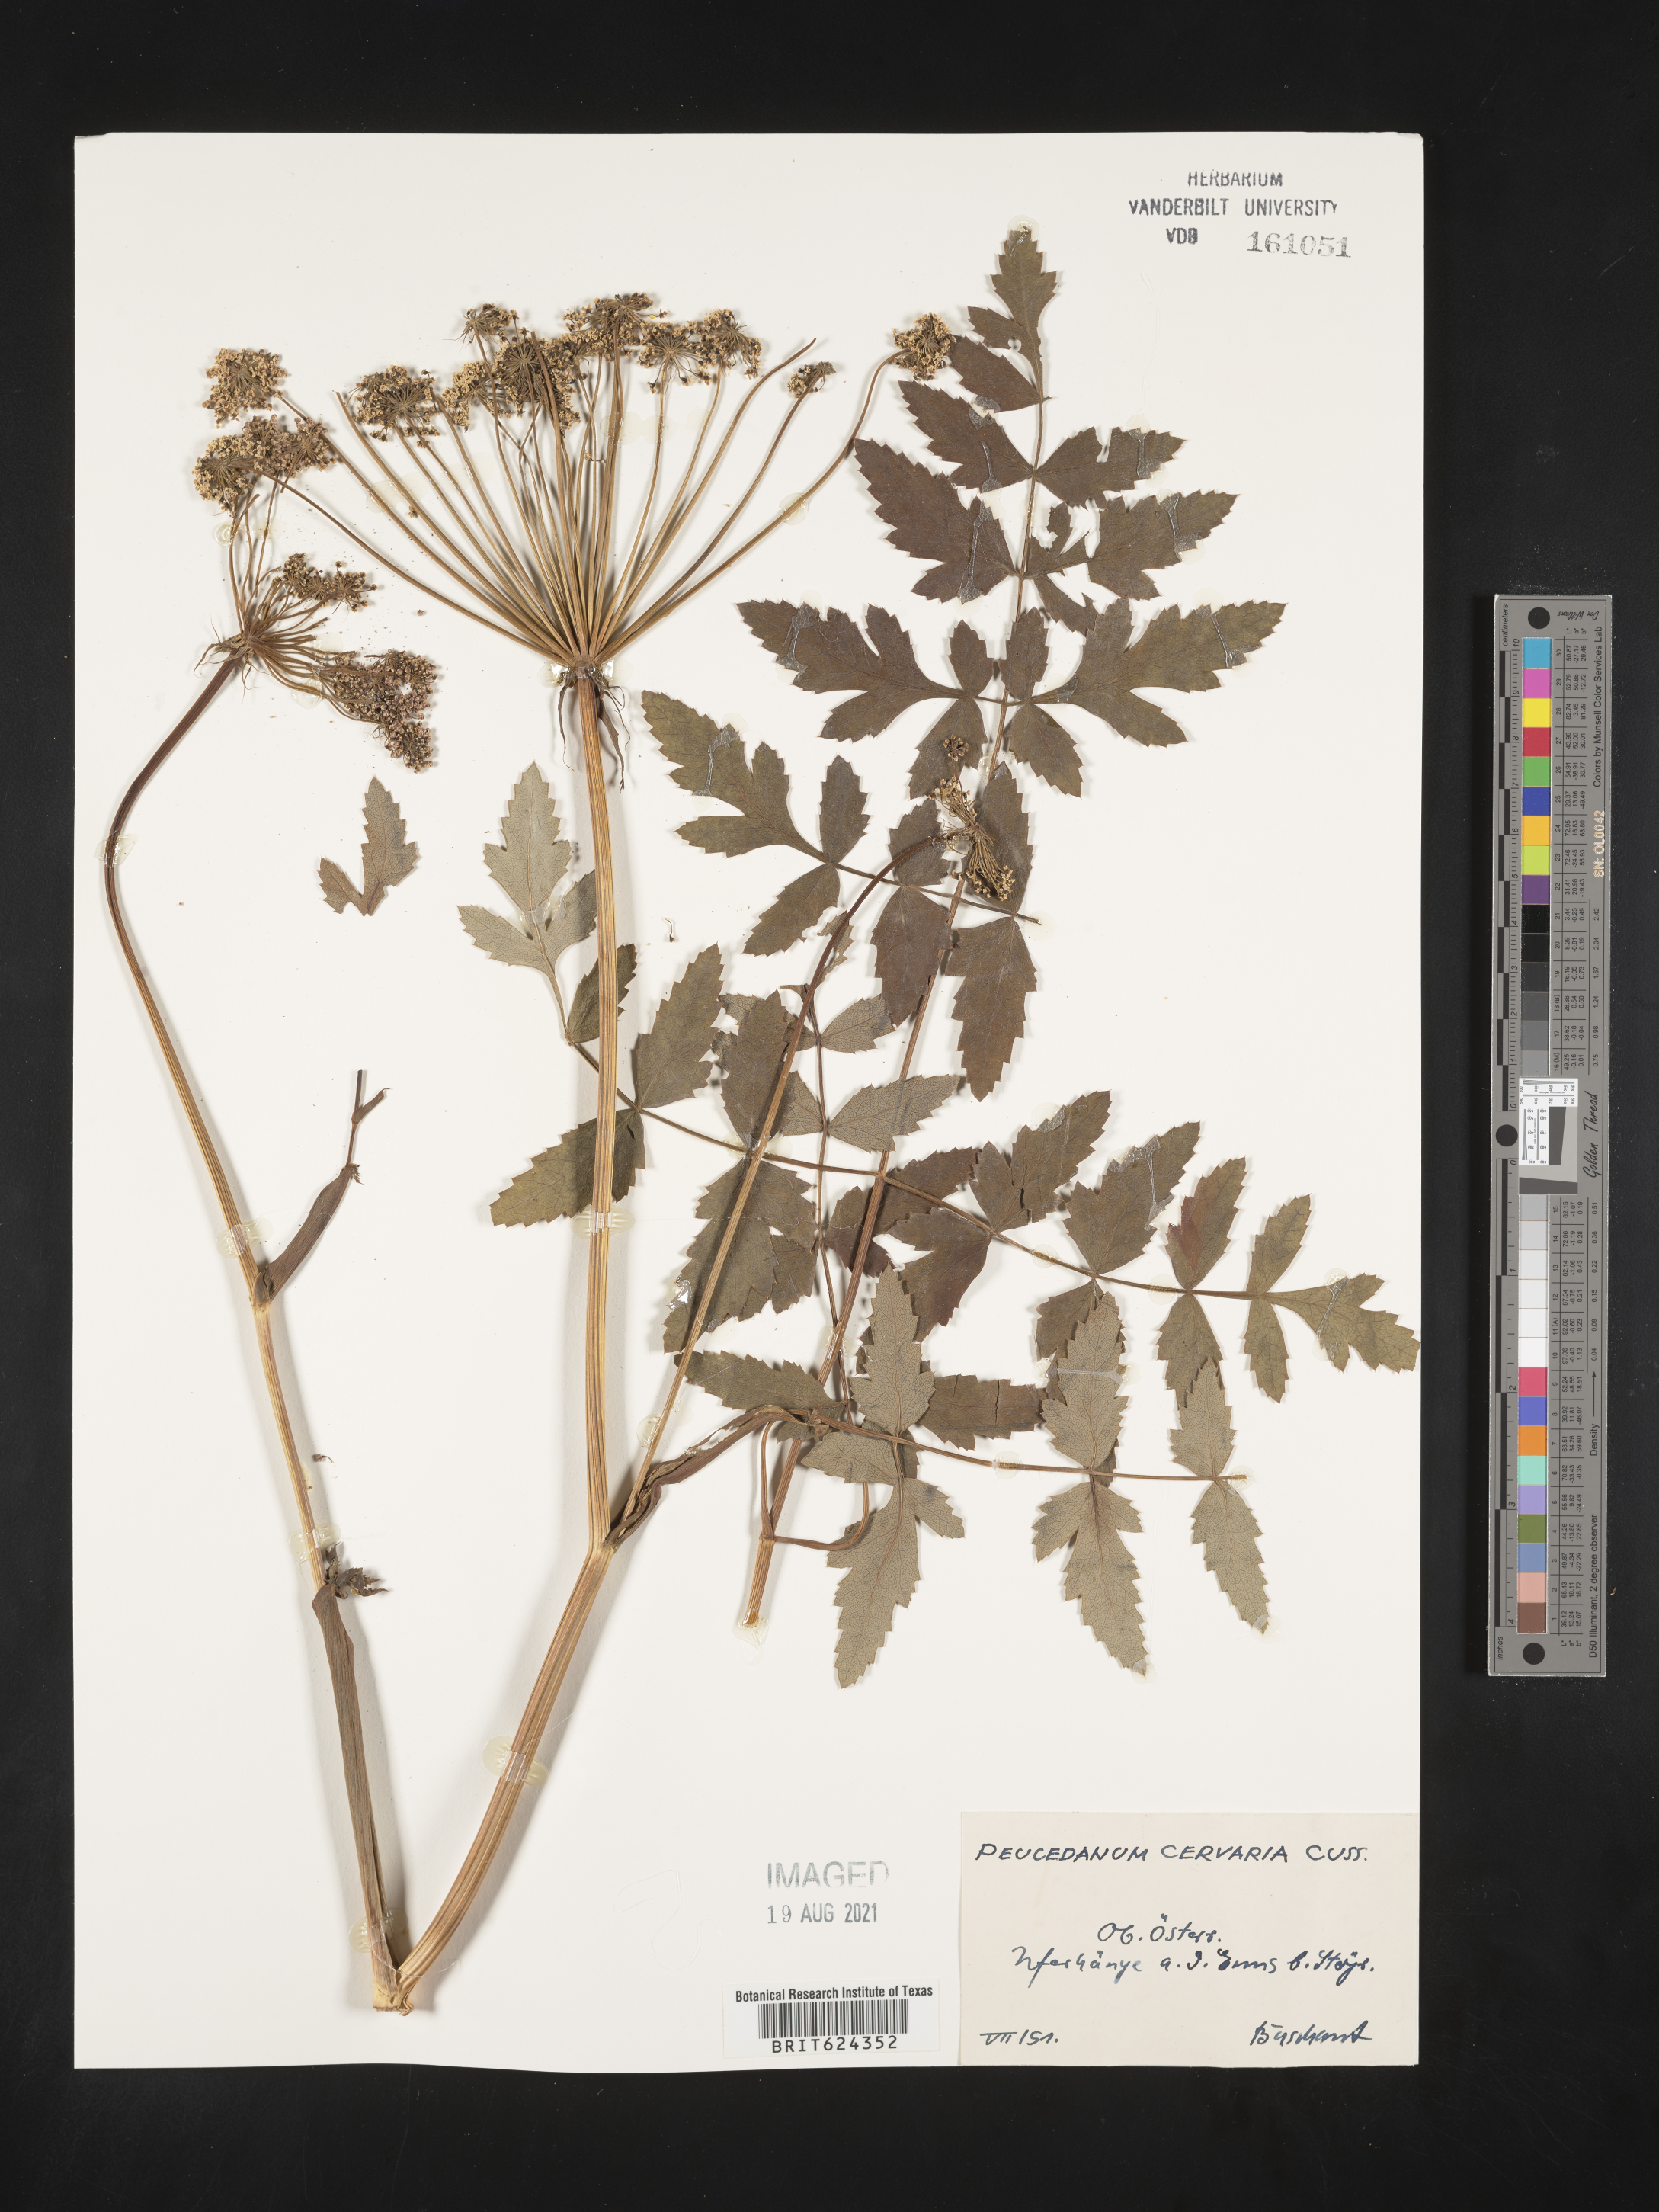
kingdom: Plantae
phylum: Tracheophyta
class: Magnoliopsida
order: Apiales
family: Apiaceae
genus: Cervaria
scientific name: Cervaria rivini
